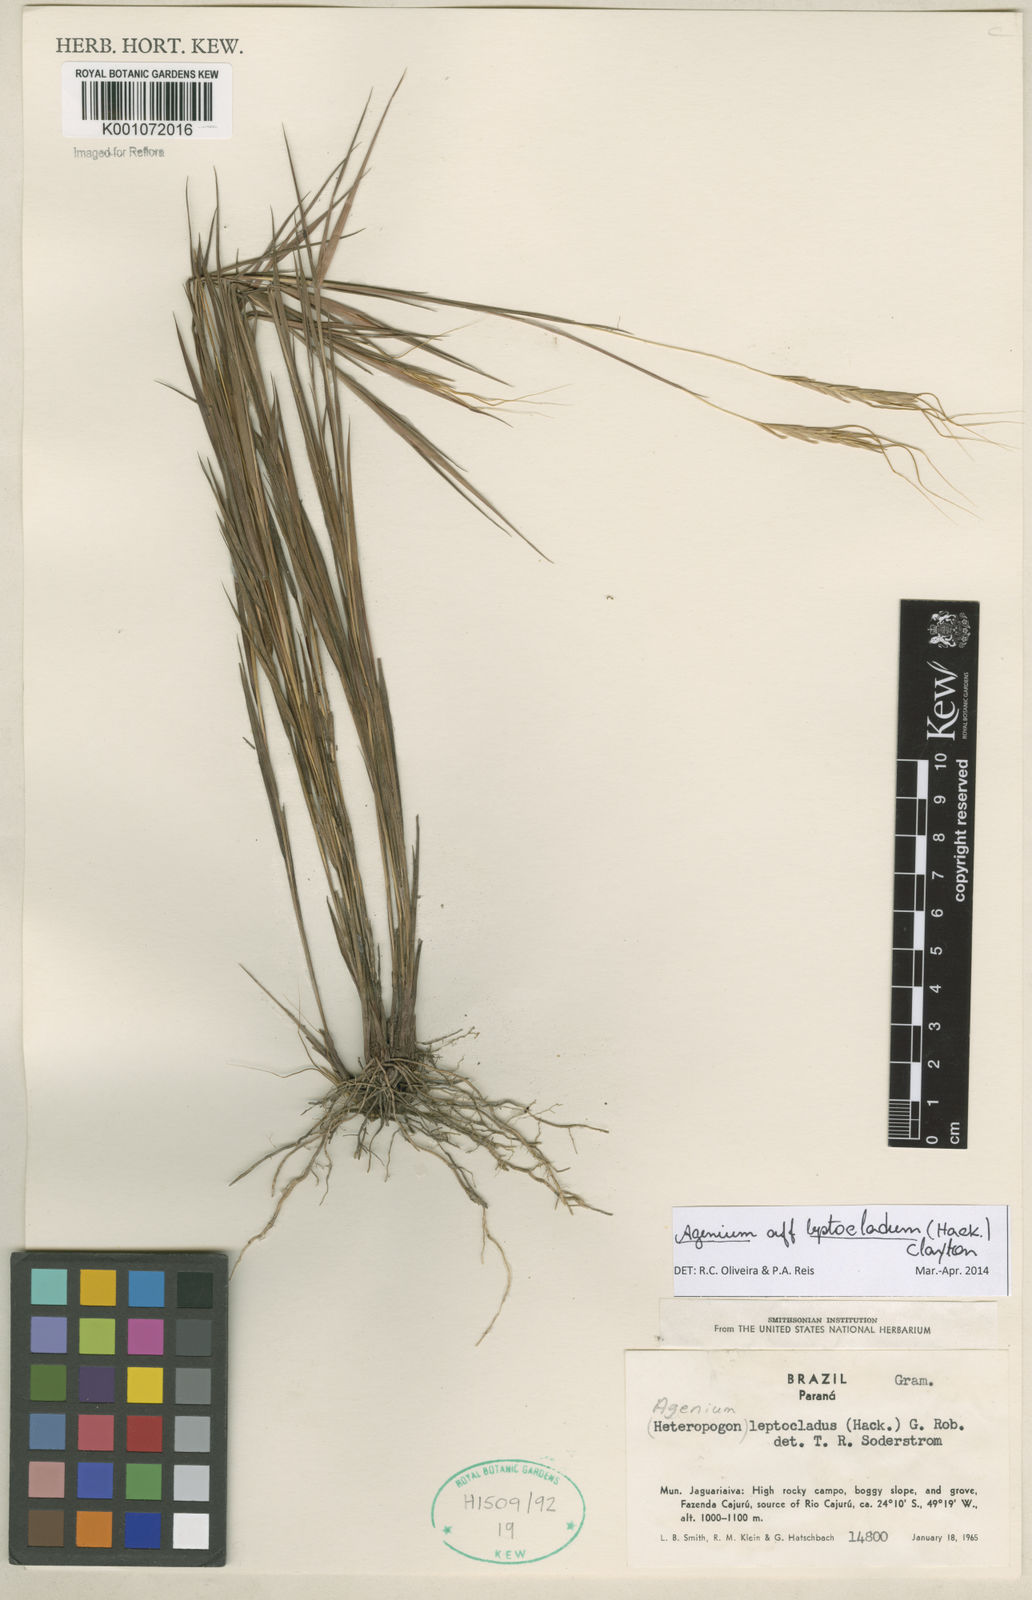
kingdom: Plantae
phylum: Tracheophyta
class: Liliopsida
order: Poales
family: Poaceae
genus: Agenium
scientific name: Agenium leptocladum
